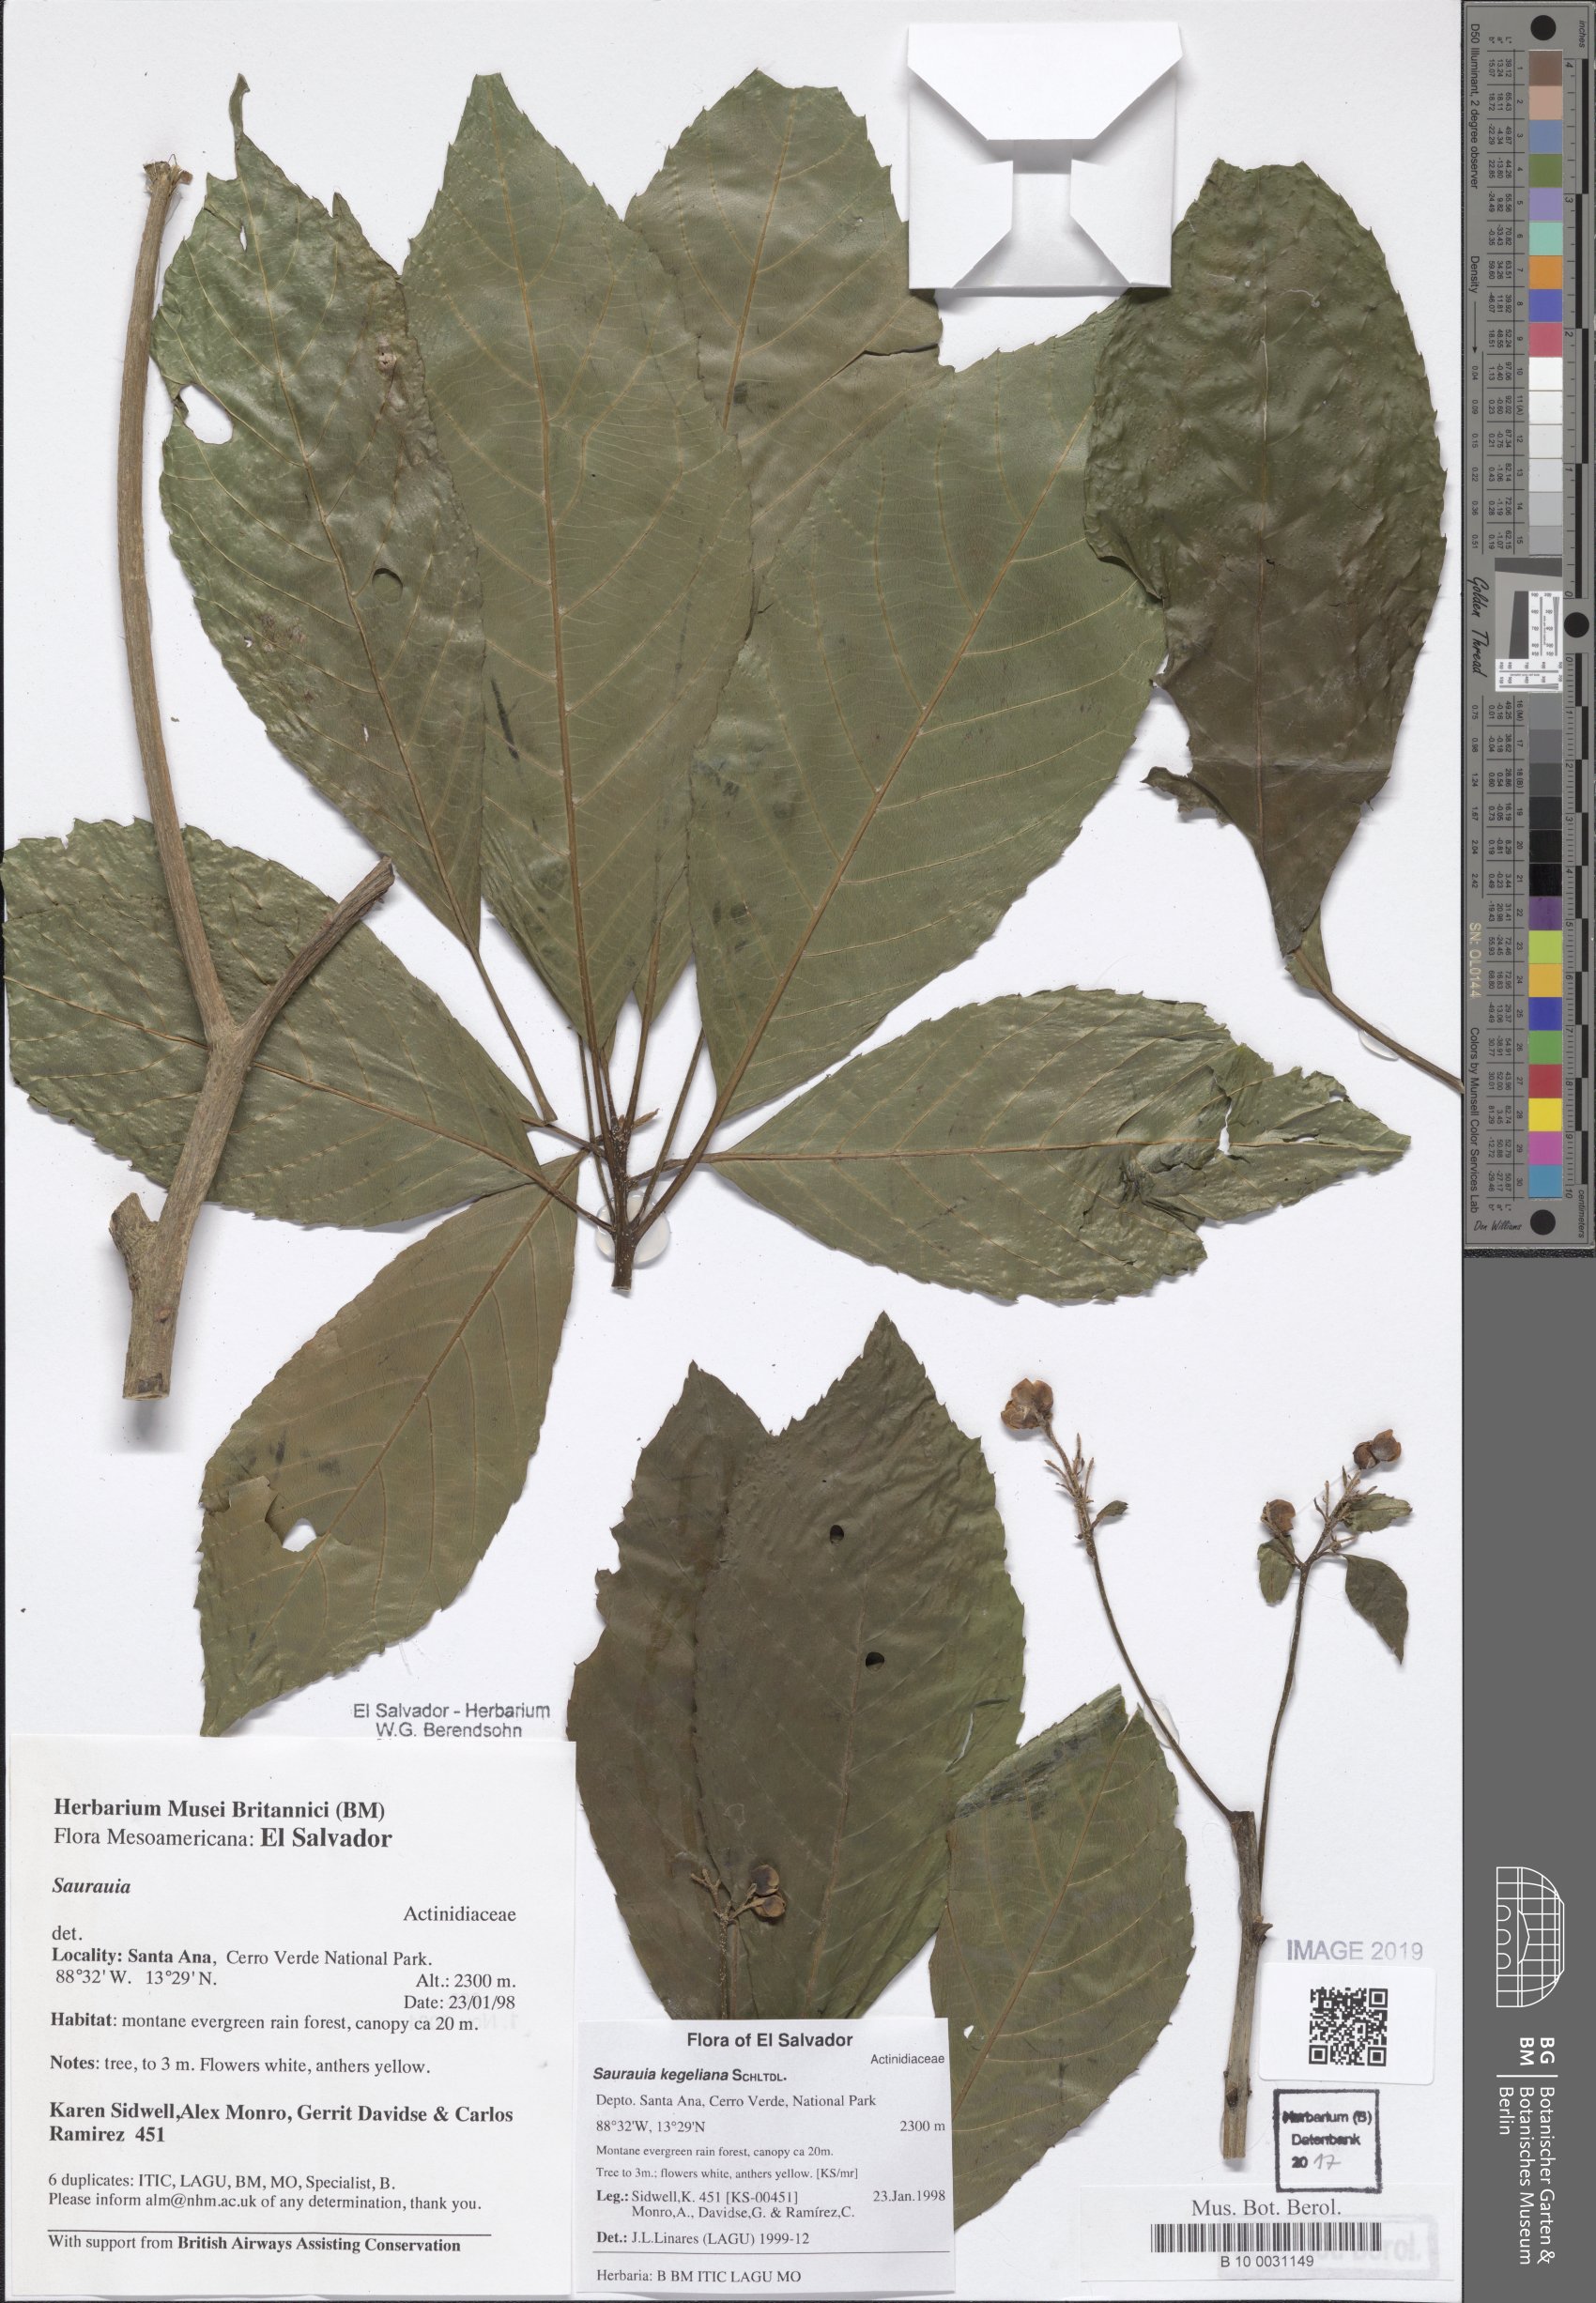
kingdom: Plantae
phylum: Tracheophyta
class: Magnoliopsida
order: Ericales
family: Actinidiaceae
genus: Saurauia
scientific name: Saurauia kegeliana
